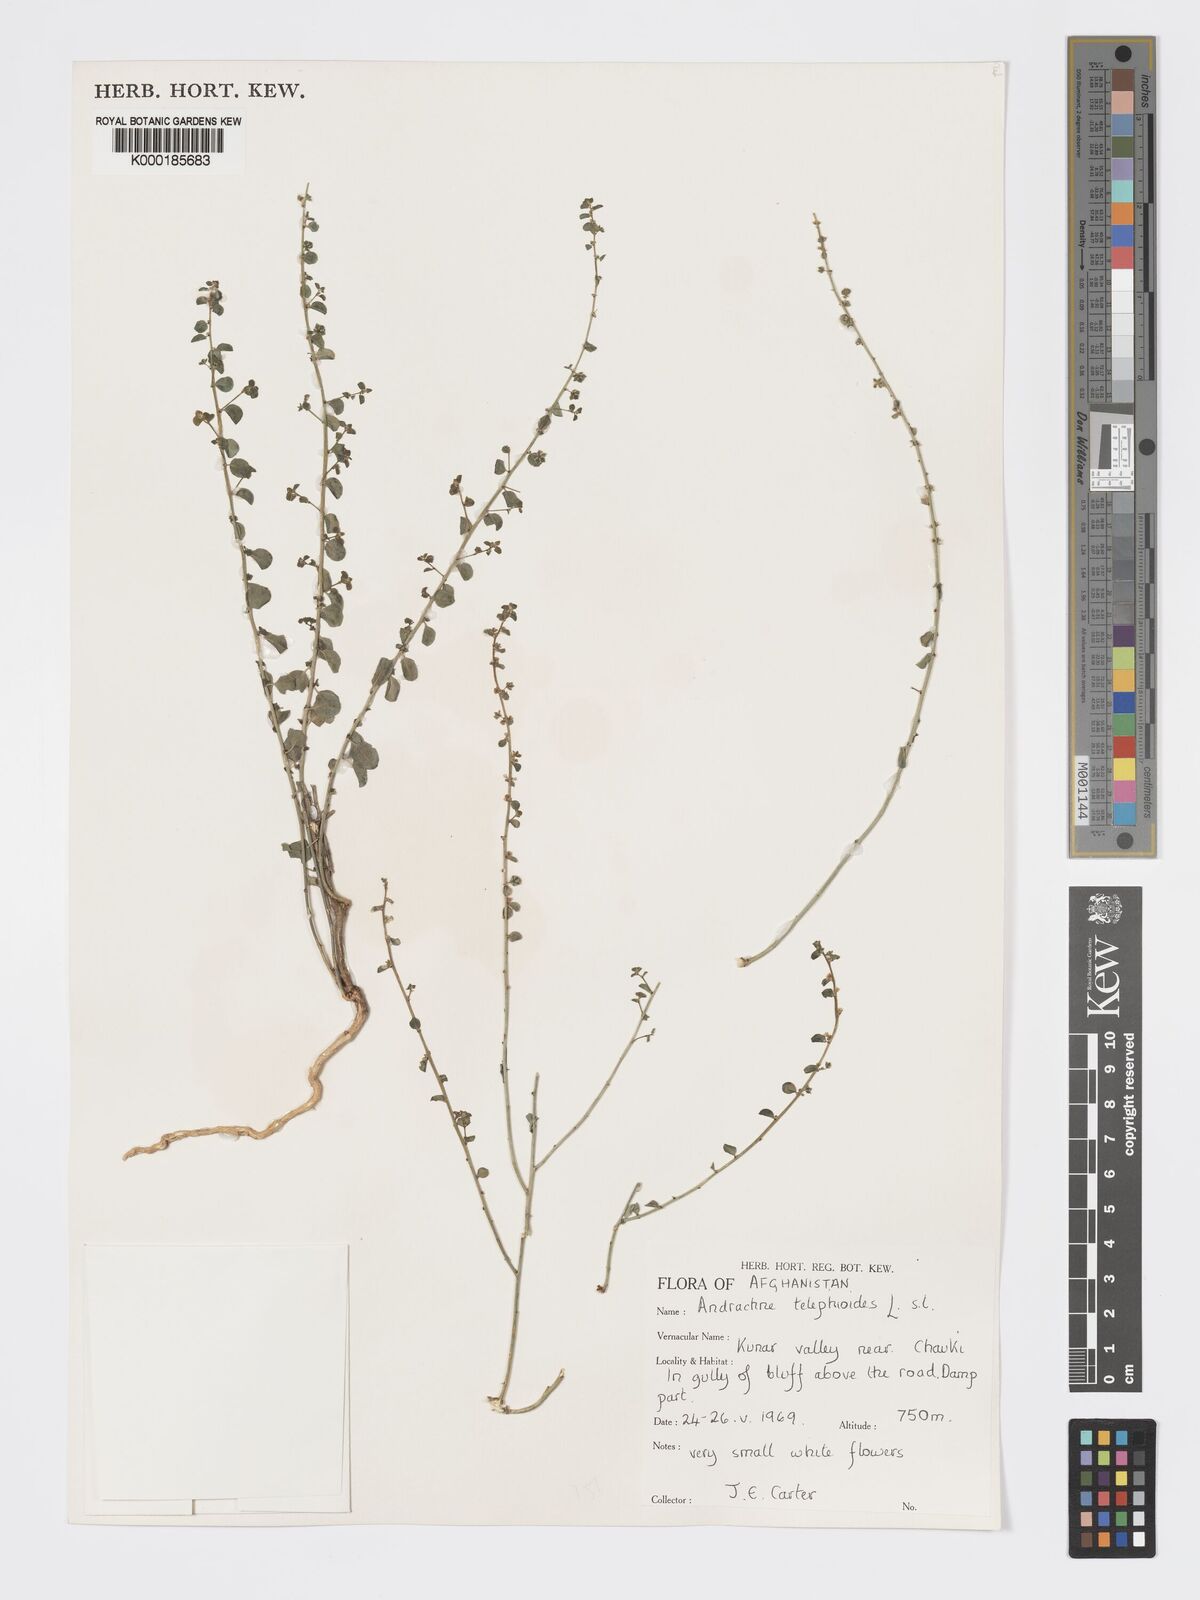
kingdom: Plantae
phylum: Tracheophyta
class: Magnoliopsida
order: Malpighiales
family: Phyllanthaceae
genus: Andrachne
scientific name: Andrachne telephioides
